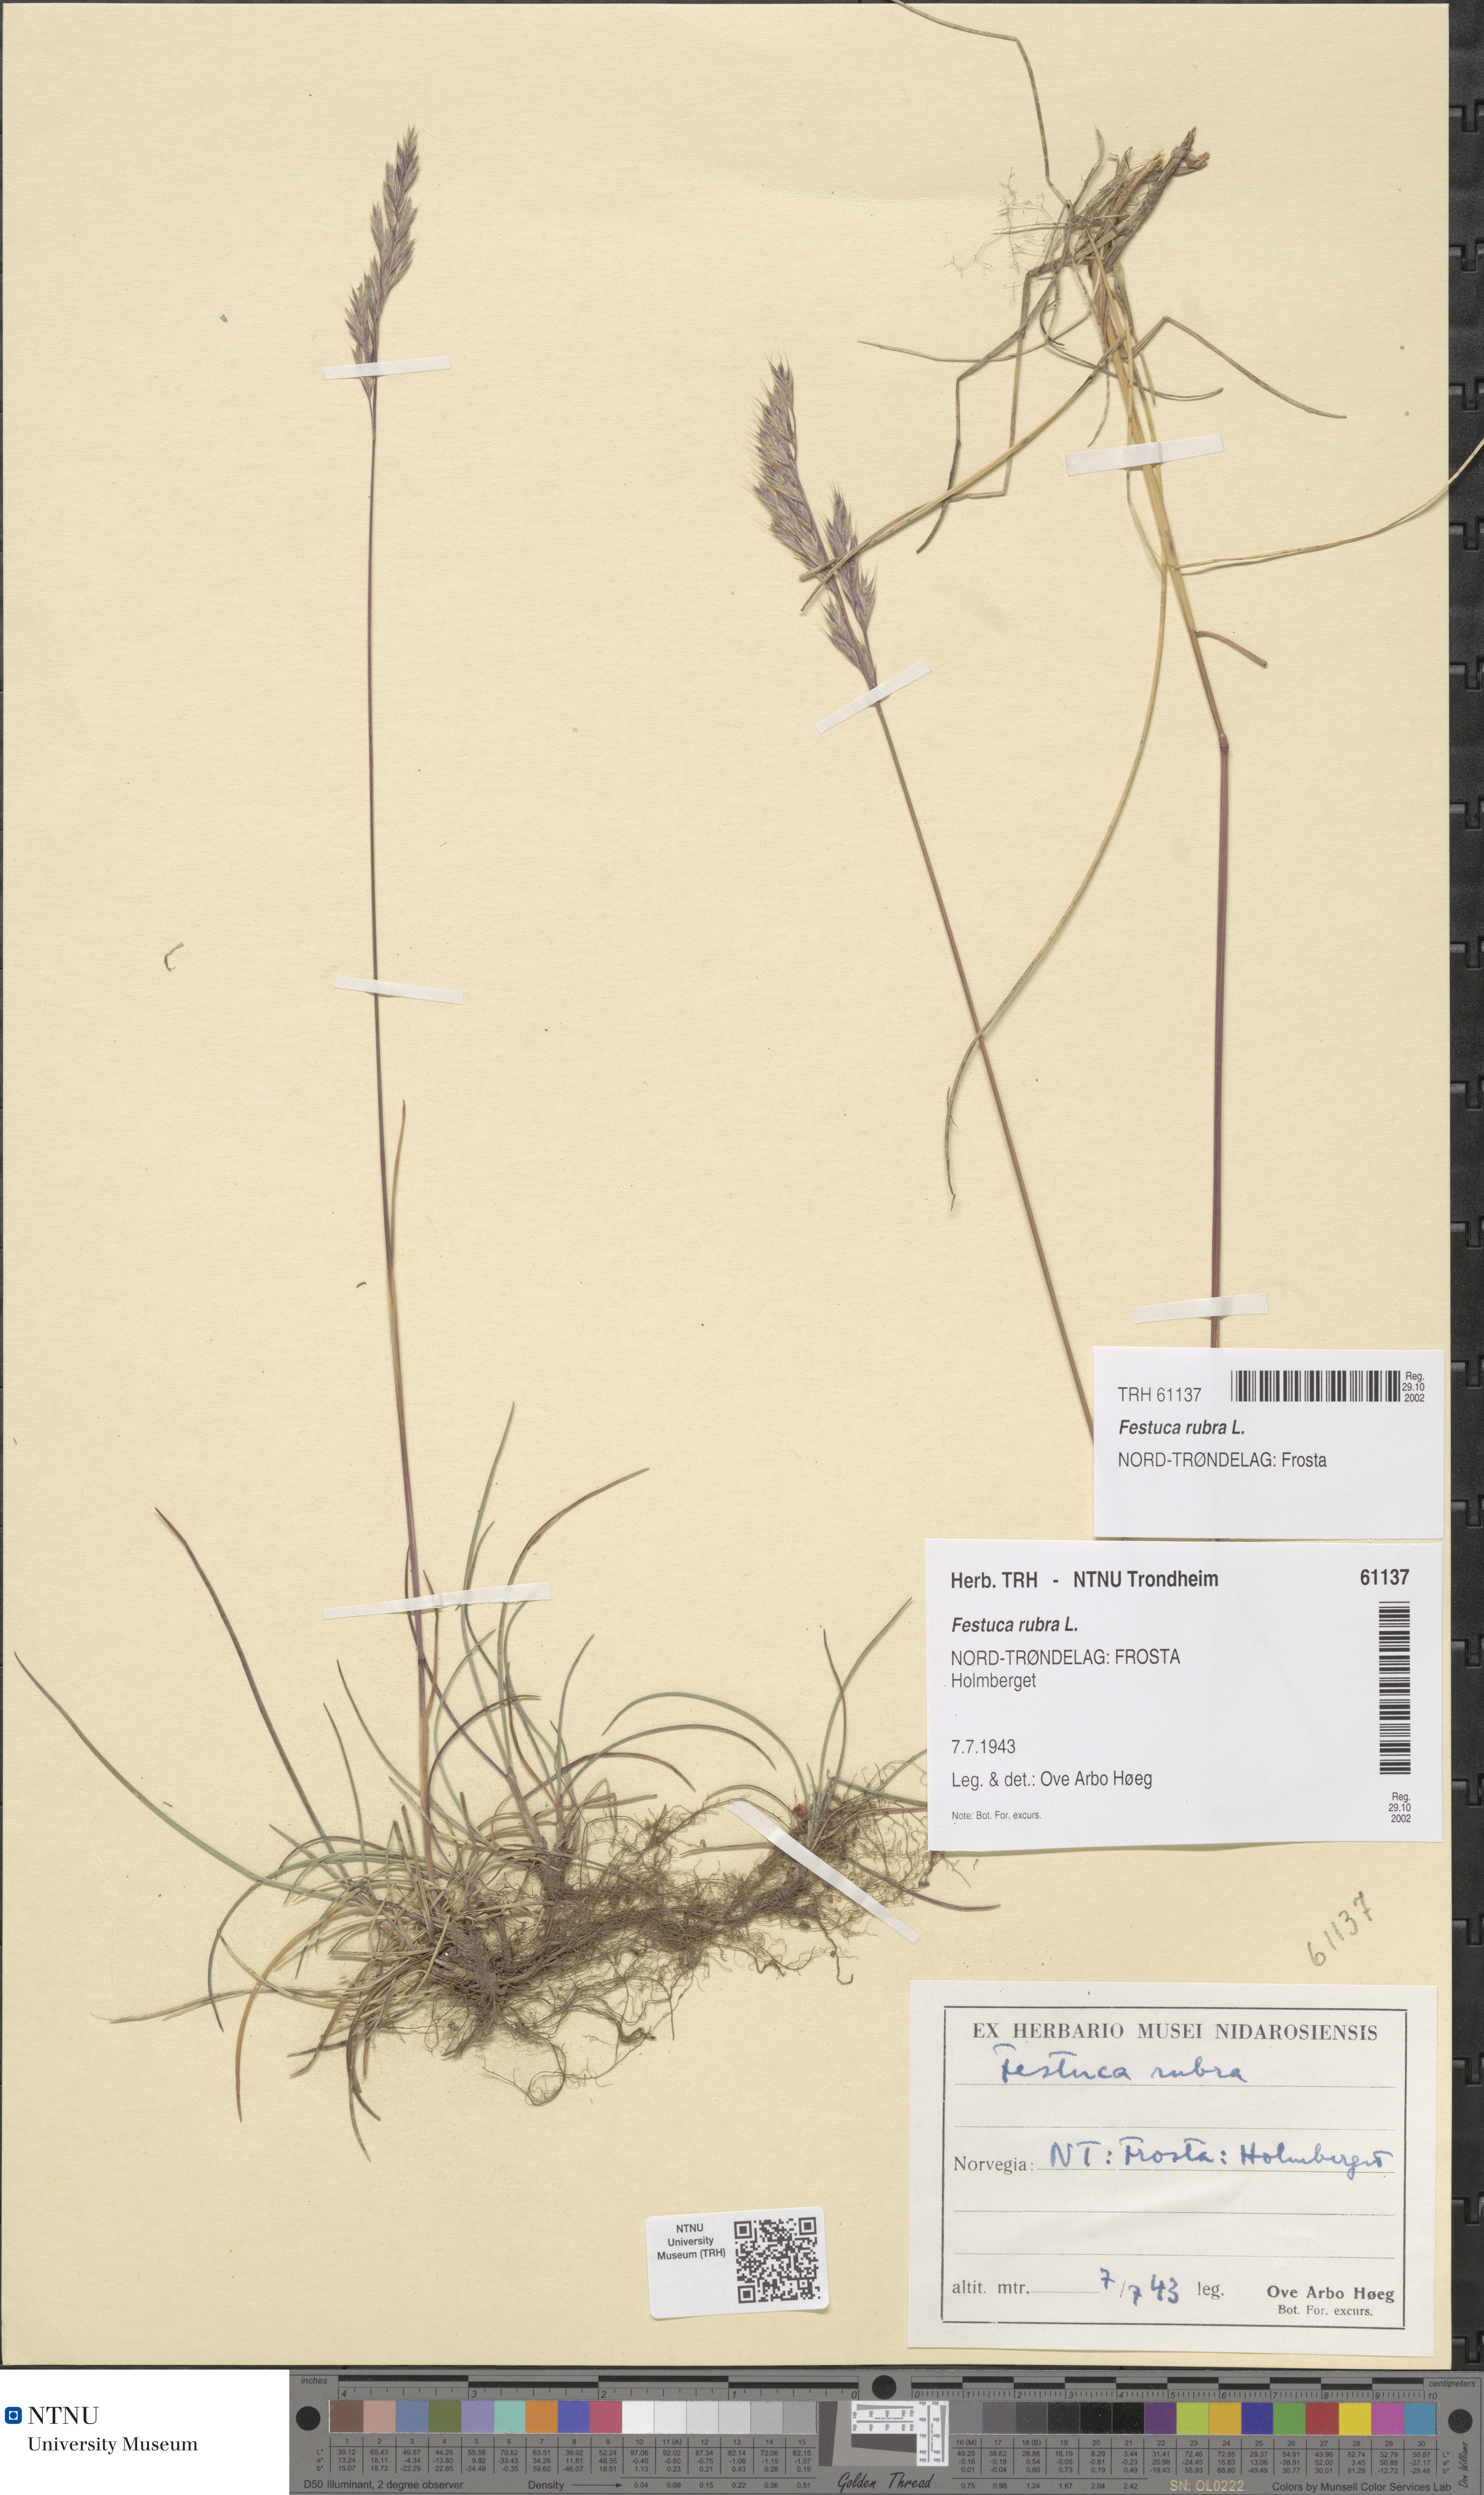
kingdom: Plantae
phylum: Tracheophyta
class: Liliopsida
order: Poales
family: Poaceae
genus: Festuca
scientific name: Festuca rubra
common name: Red fescue
